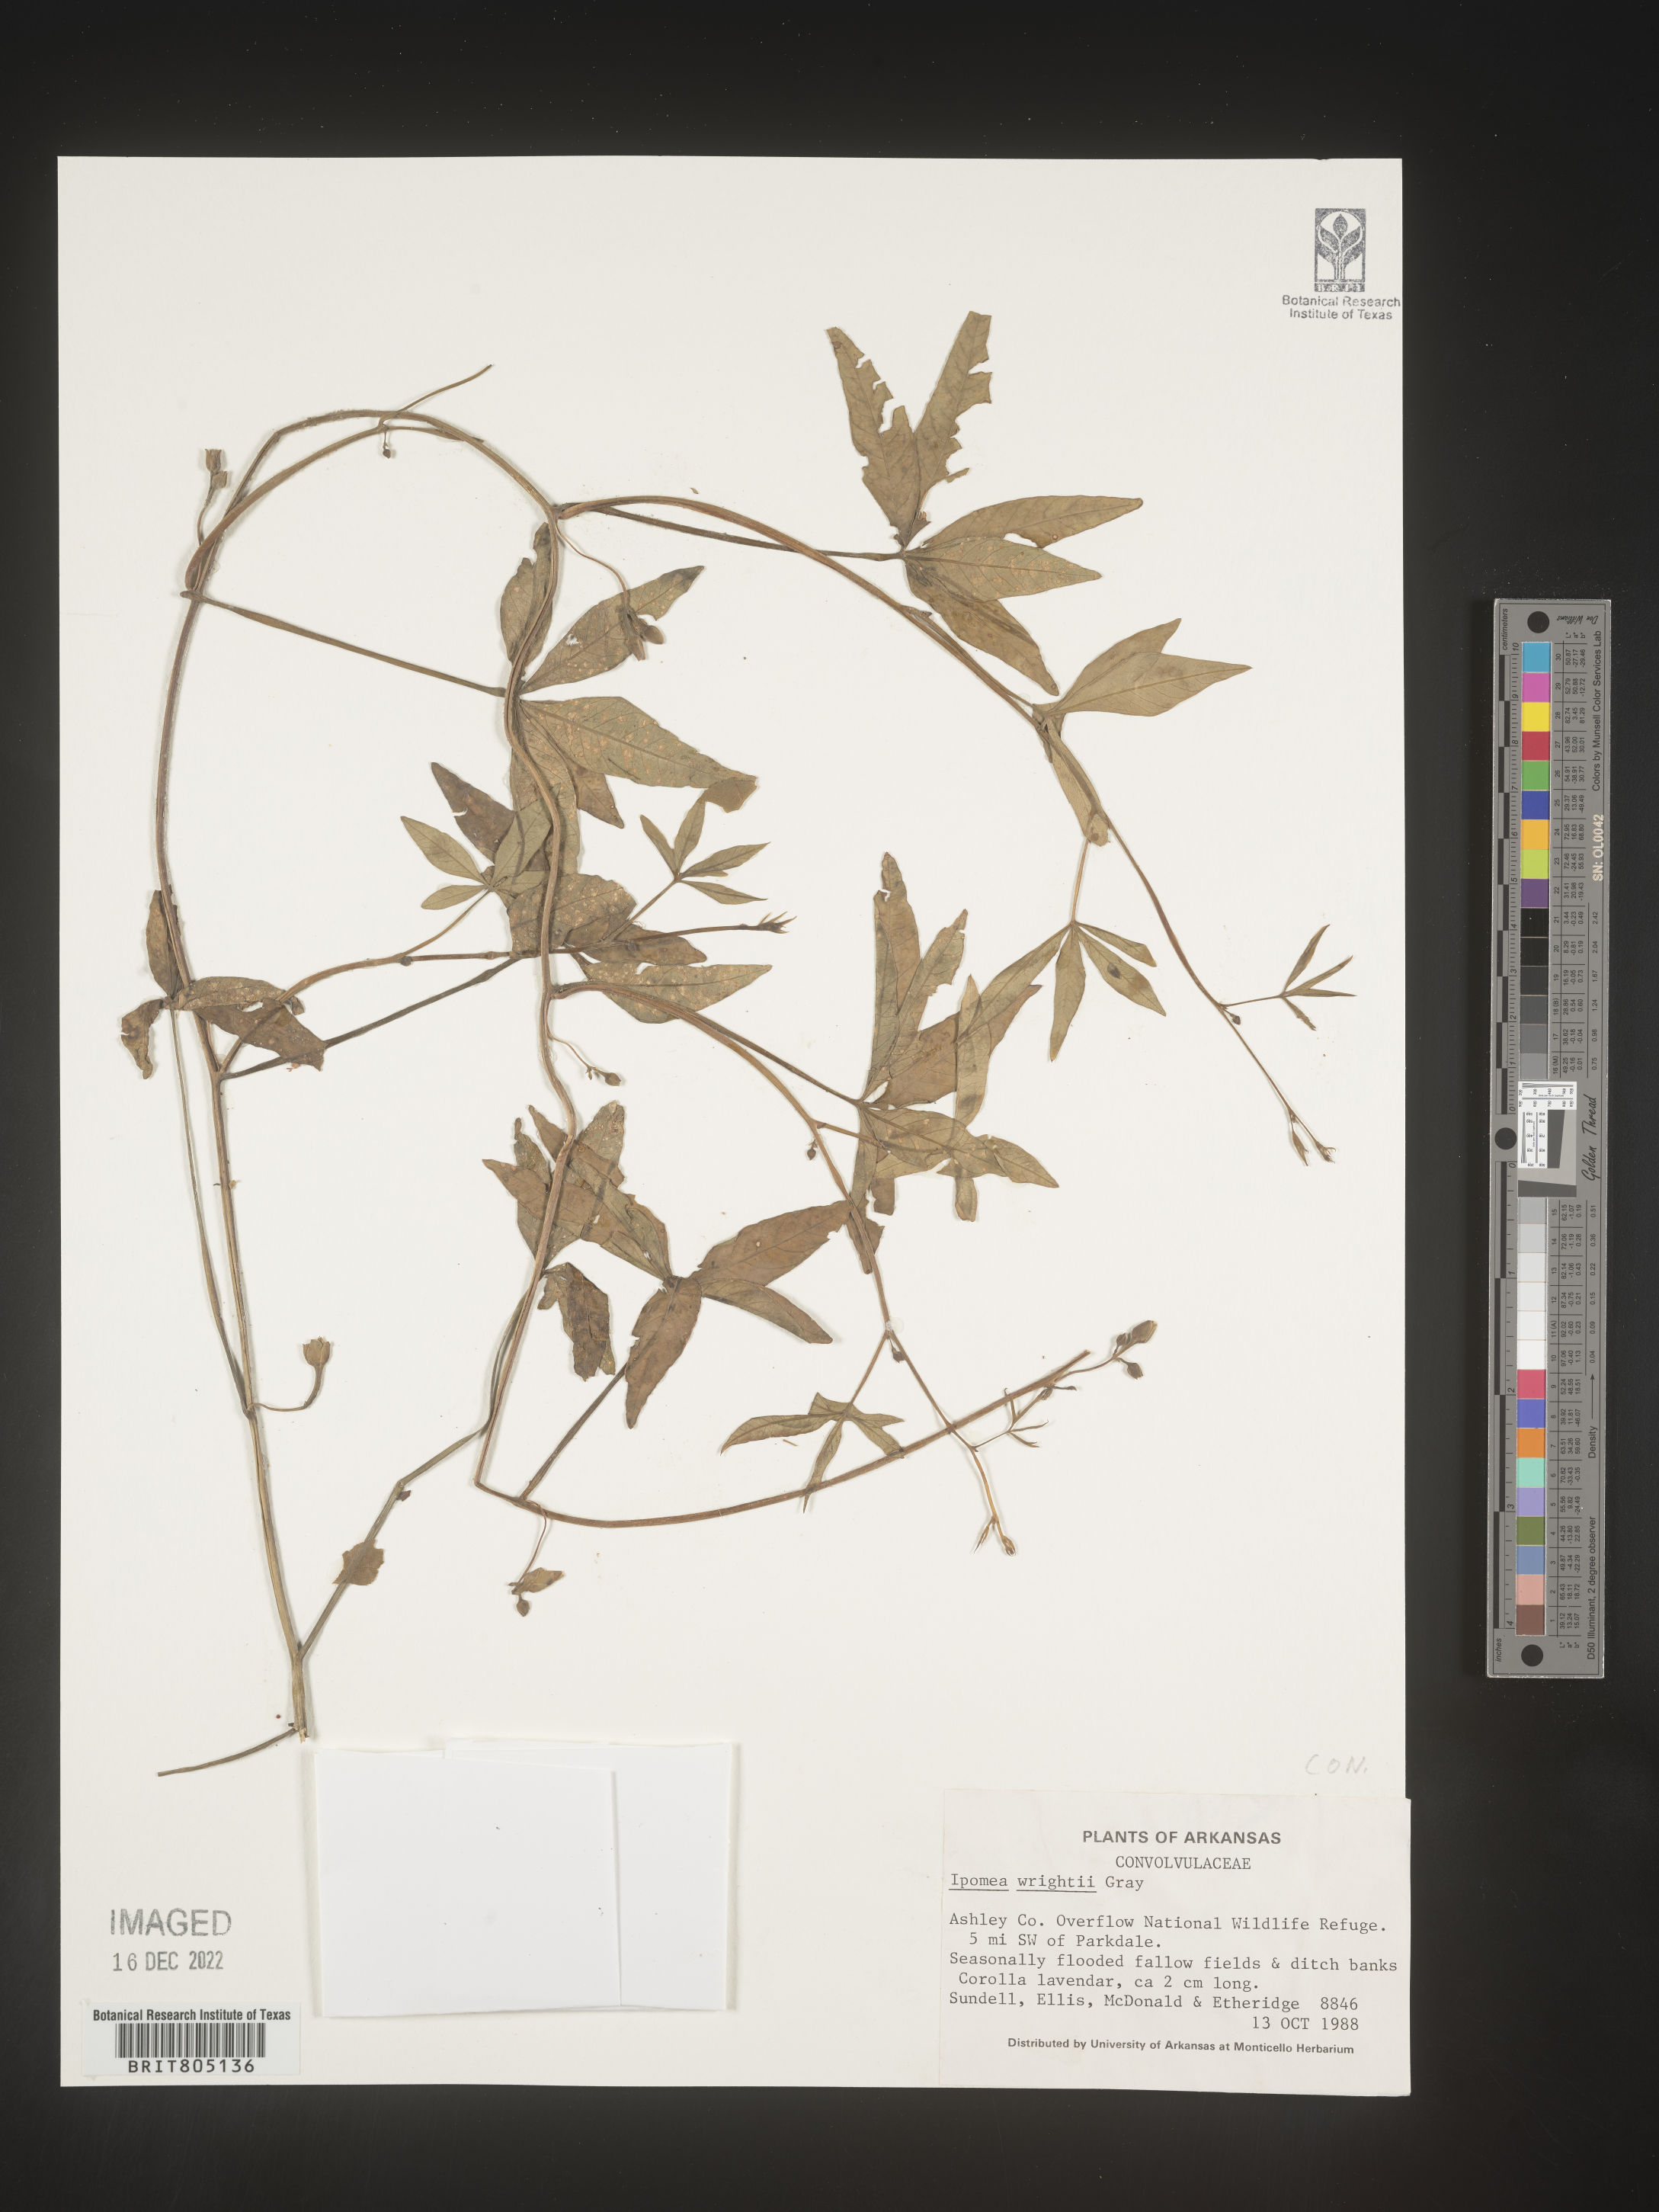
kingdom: Plantae
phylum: Tracheophyta
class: Magnoliopsida
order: Solanales
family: Convolvulaceae
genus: Ipomoea
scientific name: Ipomoea heptaphylla
